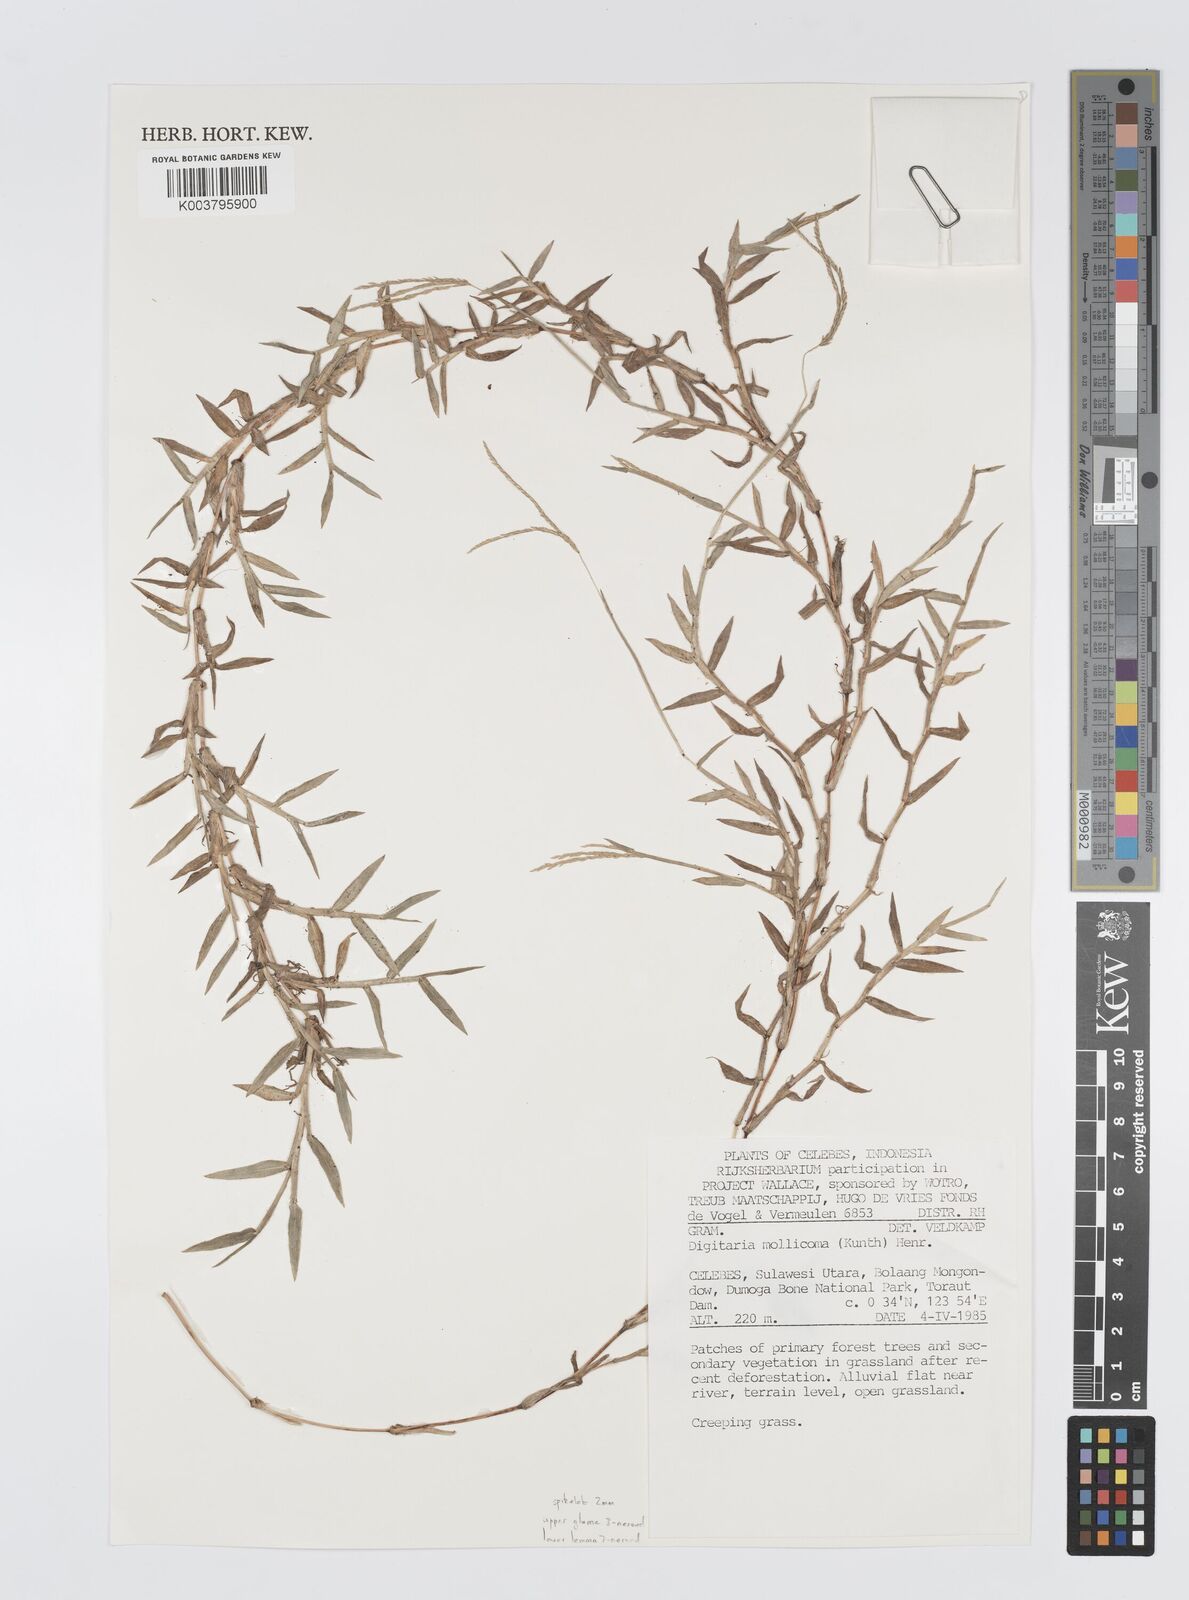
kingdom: Plantae
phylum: Tracheophyta
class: Liliopsida
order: Poales
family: Poaceae
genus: Digitaria
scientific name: Digitaria mollicoma
